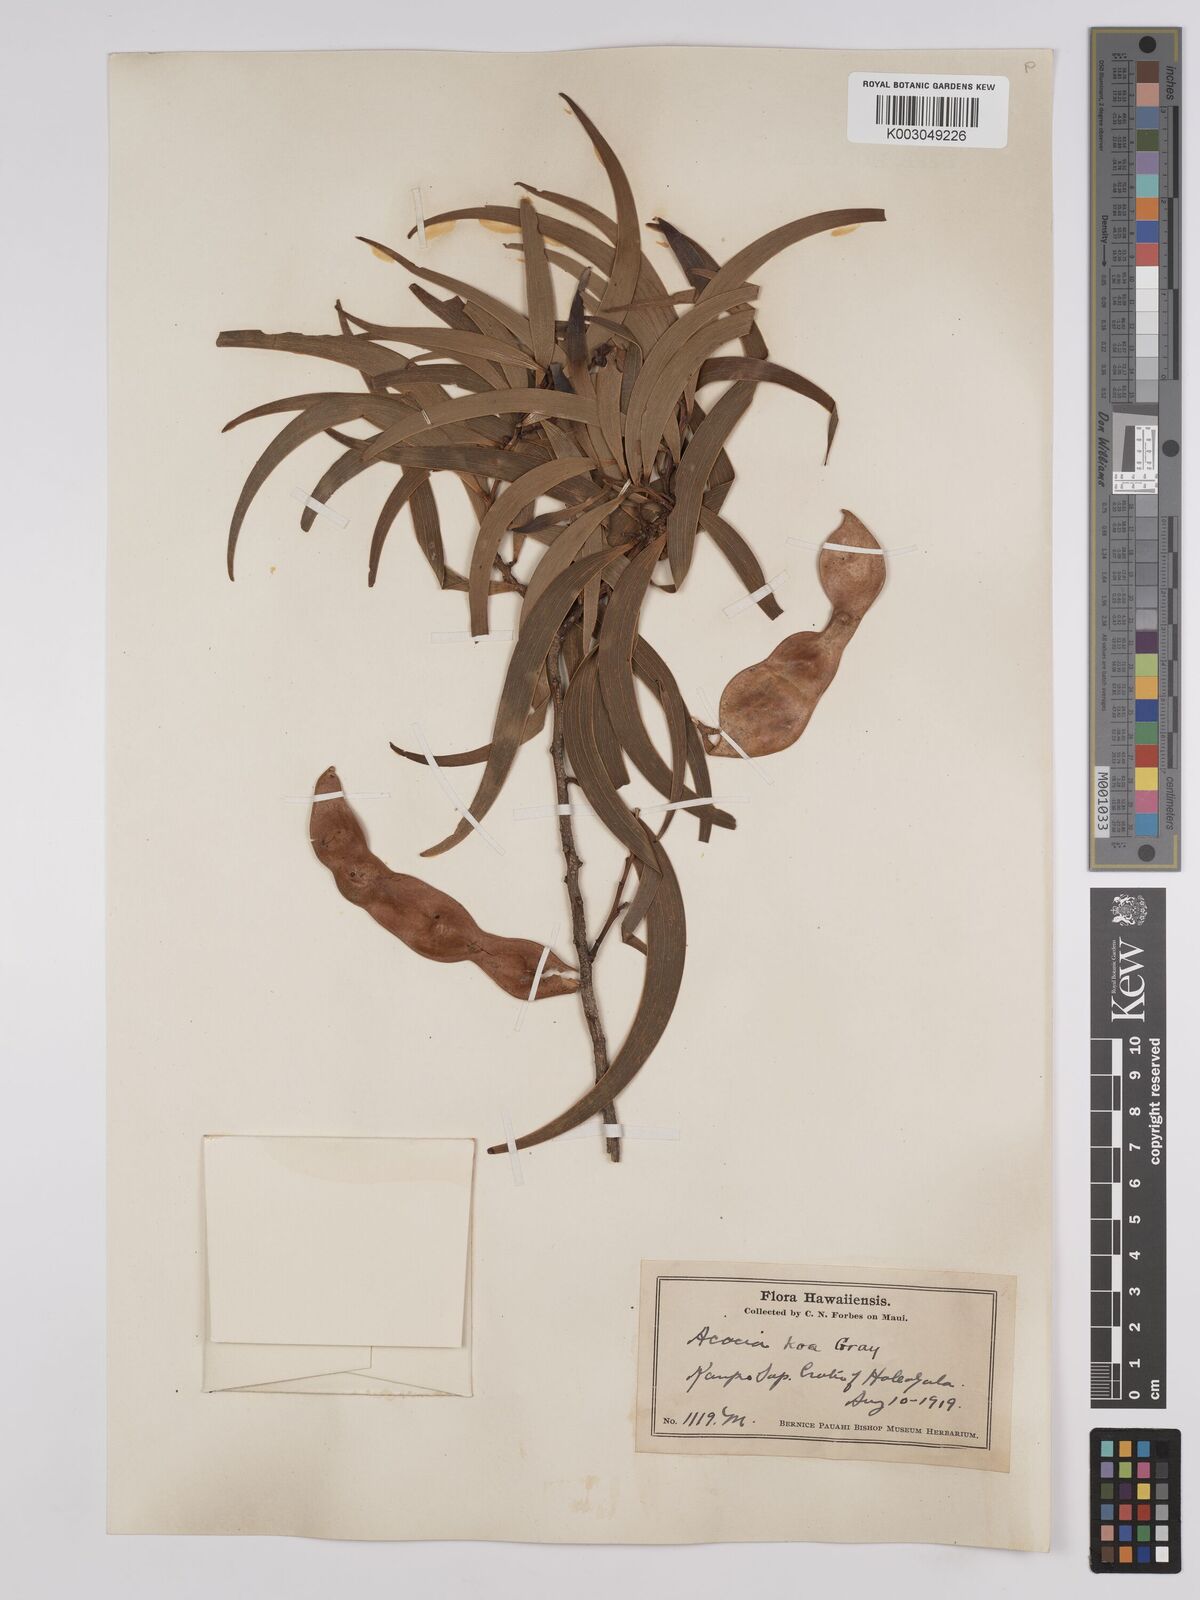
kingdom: Plantae
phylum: Tracheophyta
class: Magnoliopsida
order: Fabales
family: Fabaceae
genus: Acacia
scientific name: Acacia koa
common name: Gray koa
